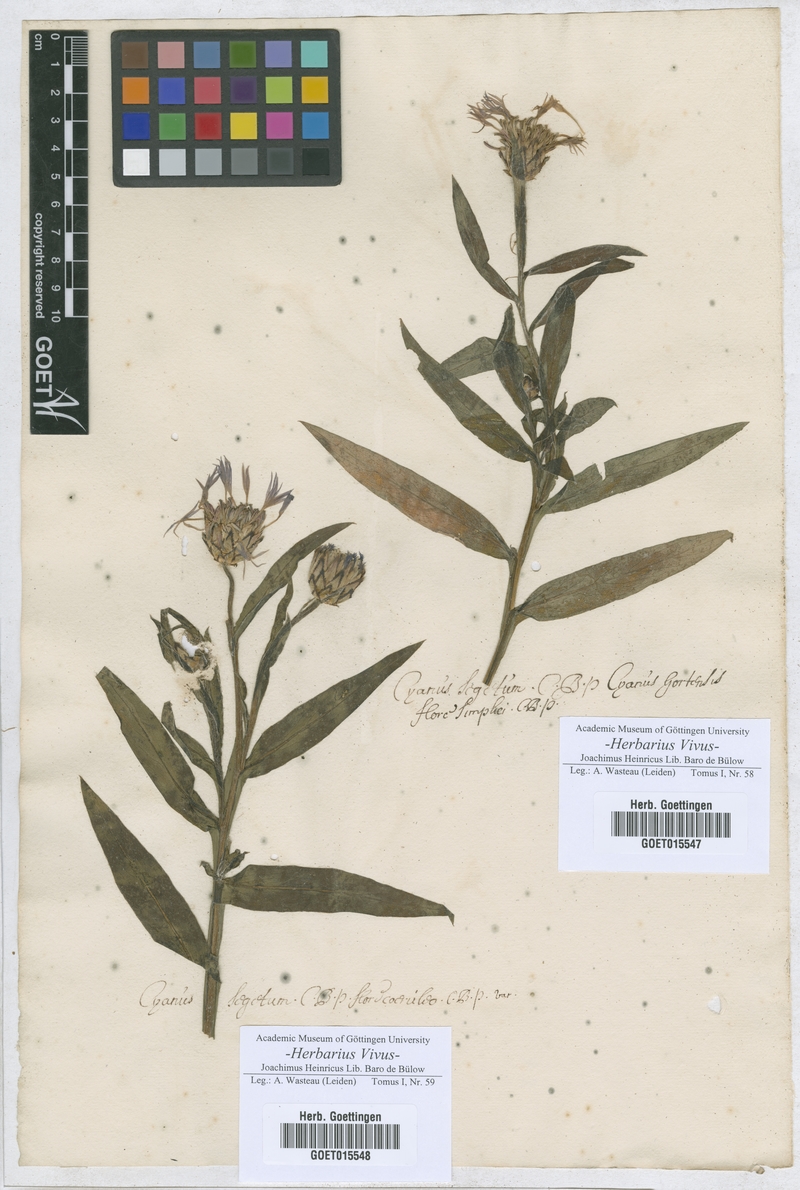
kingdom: Plantae
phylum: Tracheophyta
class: Magnoliopsida
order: Asterales
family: Asteraceae
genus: Centaurea
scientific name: Centaurea cyanus
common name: Cornflower
